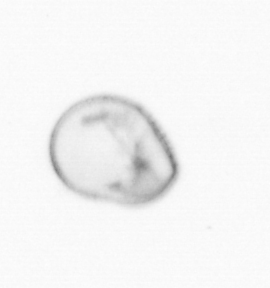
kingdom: Chromista
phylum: Myzozoa
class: Dinophyceae
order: Noctilucales
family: Noctilucaceae
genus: Noctiluca
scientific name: Noctiluca scintillans
